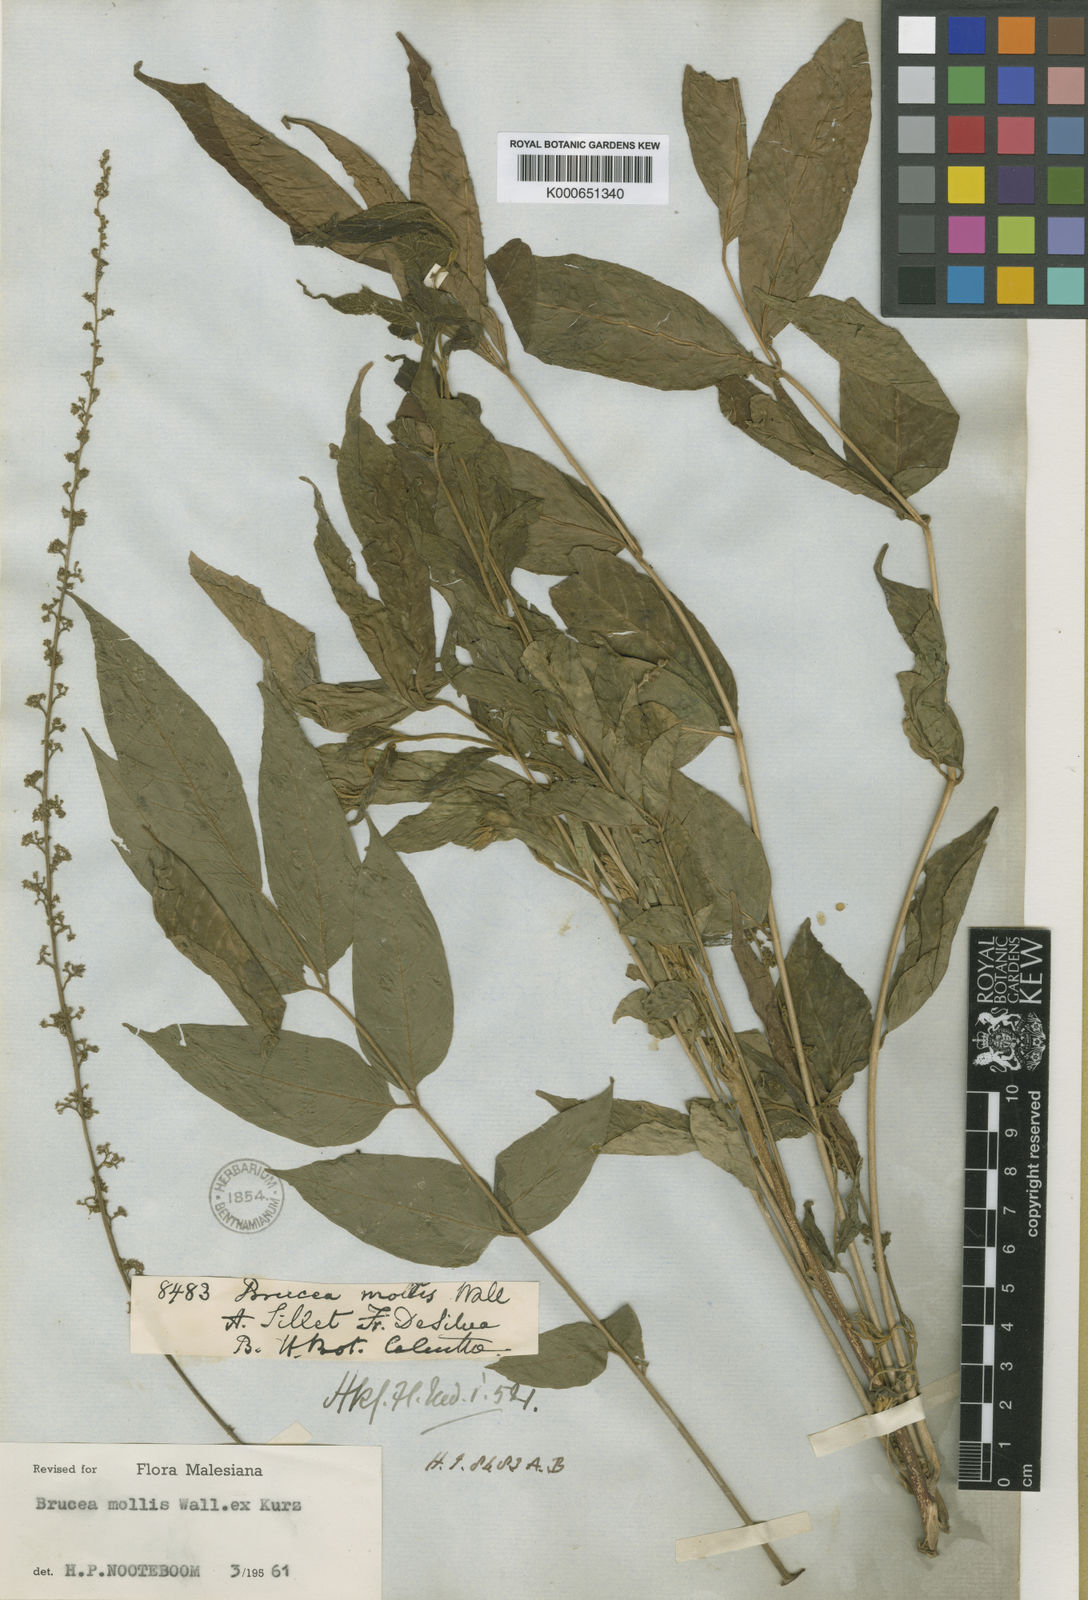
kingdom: Plantae
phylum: Tracheophyta
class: Magnoliopsida
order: Sapindales
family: Simaroubaceae
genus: Brucea
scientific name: Brucea mollis
